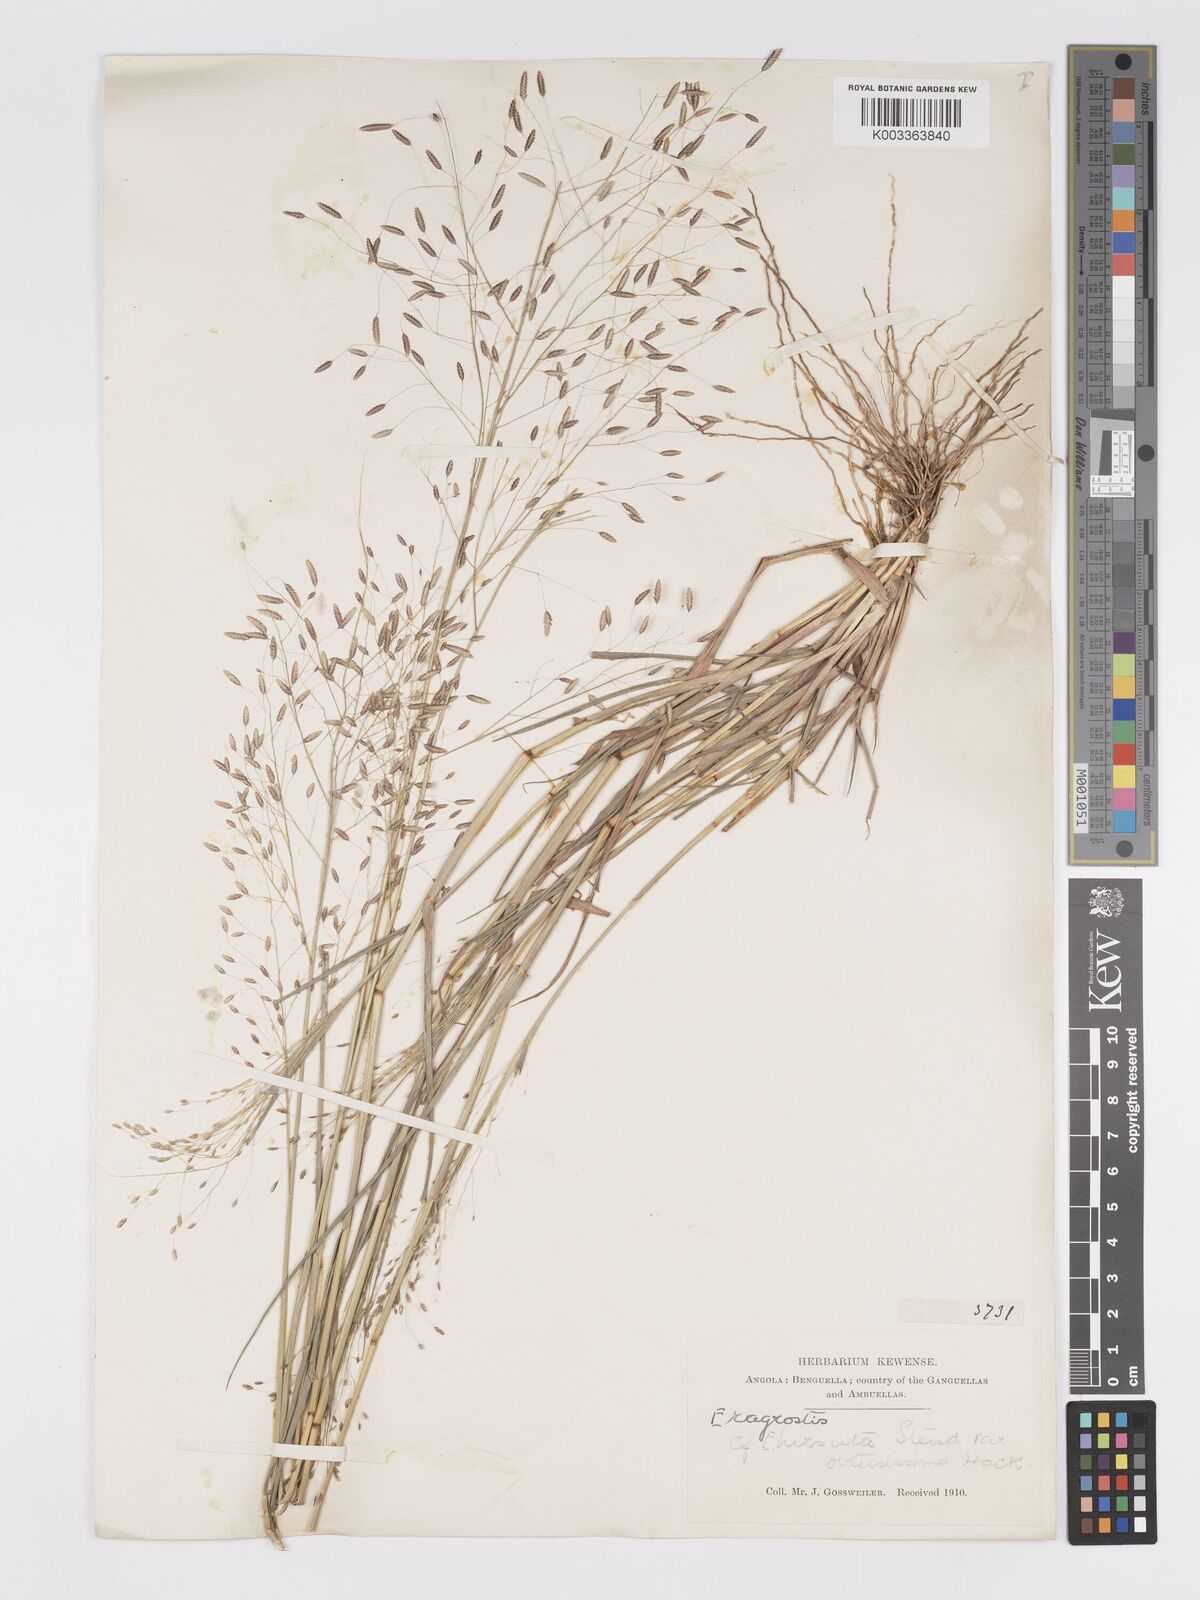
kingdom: Plantae
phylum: Tracheophyta
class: Liliopsida
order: Poales
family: Poaceae
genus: Eragrostis
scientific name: Eragrostis tremula
